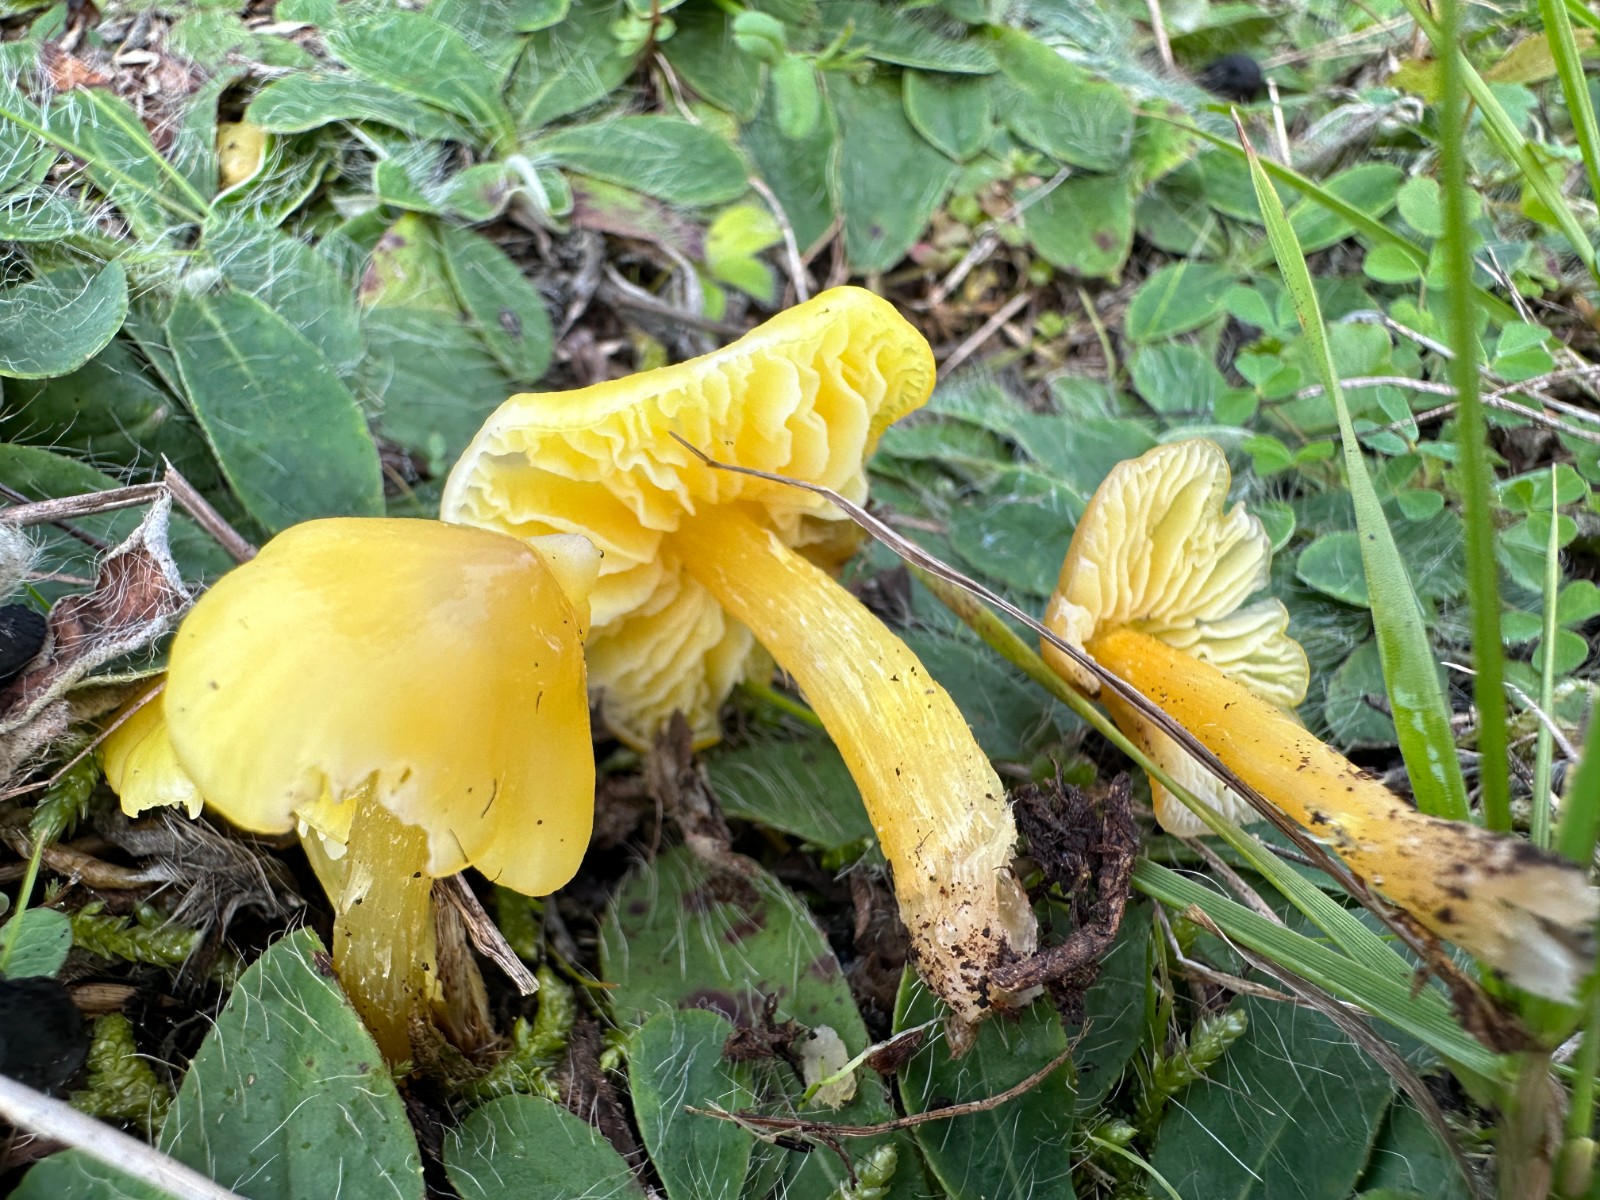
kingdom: Fungi
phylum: Basidiomycota
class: Agaricomycetes
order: Agaricales
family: Hygrophoraceae
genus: Hygrocybe
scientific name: Hygrocybe acutoconica
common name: spidspuklet vokshat
